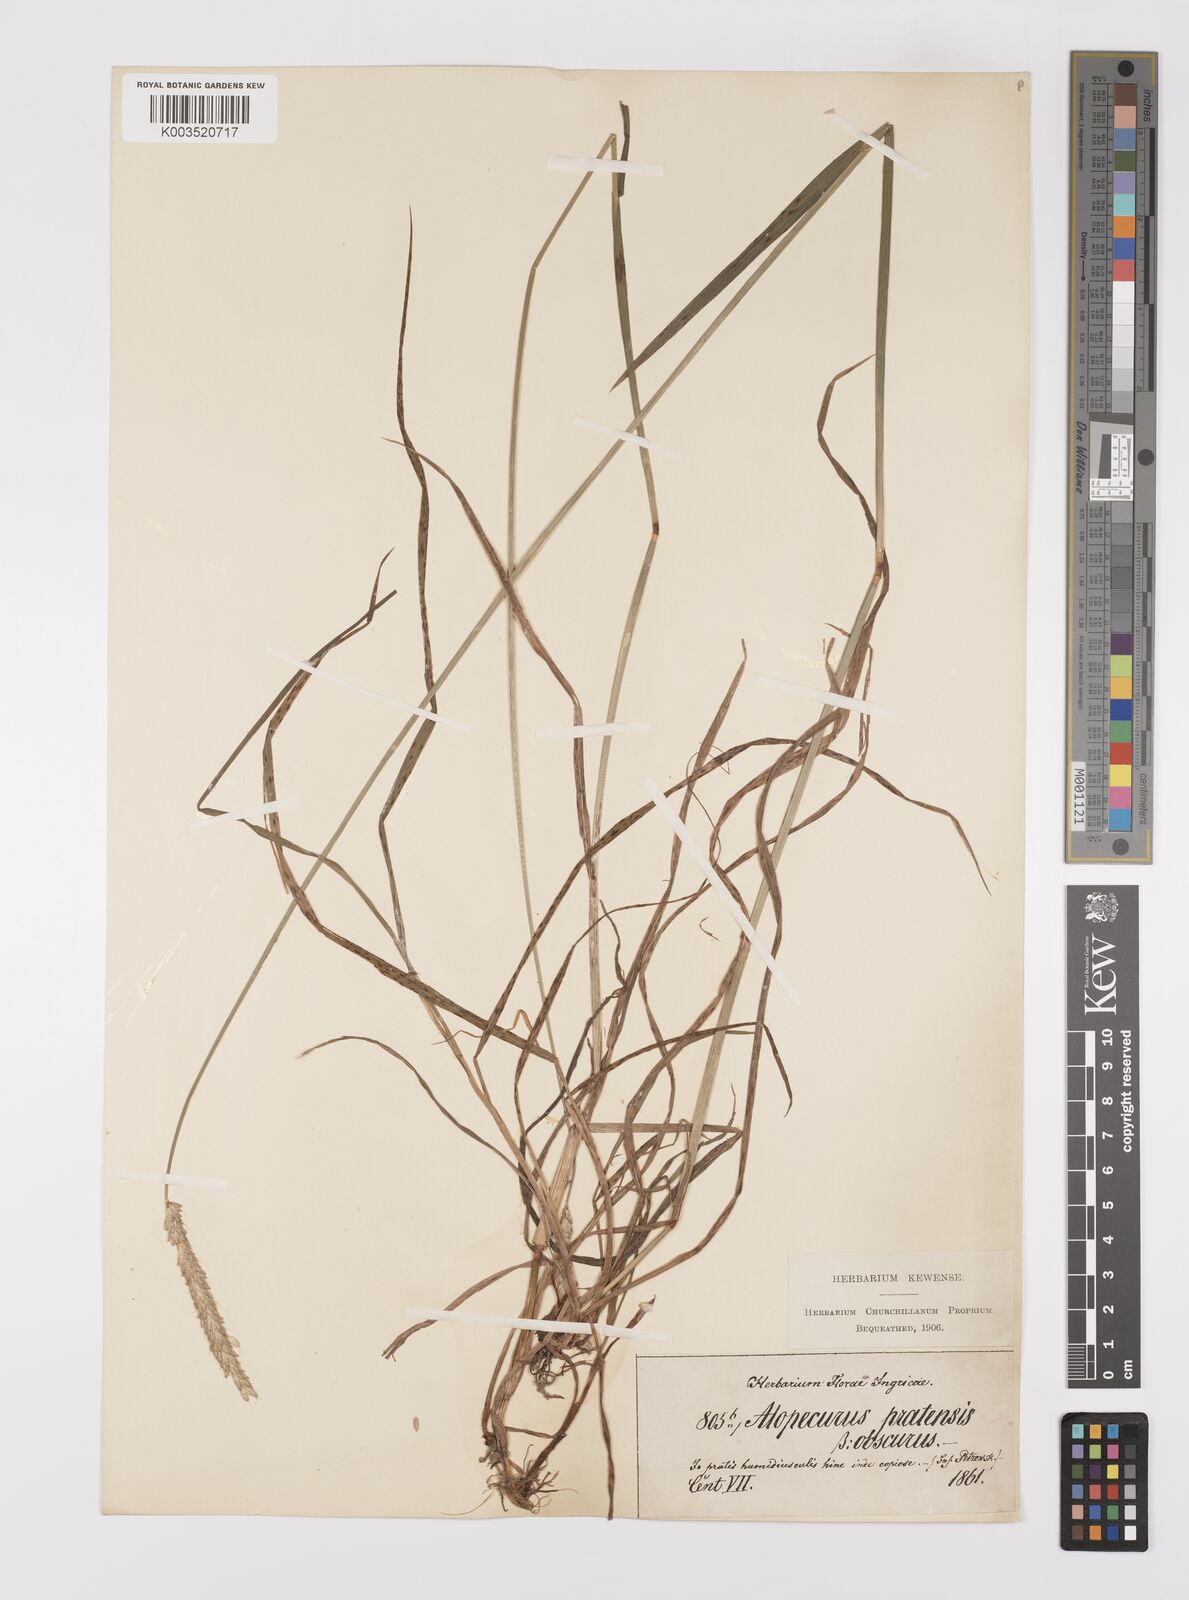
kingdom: Plantae
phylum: Tracheophyta
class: Liliopsida
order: Poales
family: Poaceae
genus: Alopecurus
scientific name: Alopecurus pratensis
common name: Meadow foxtail
